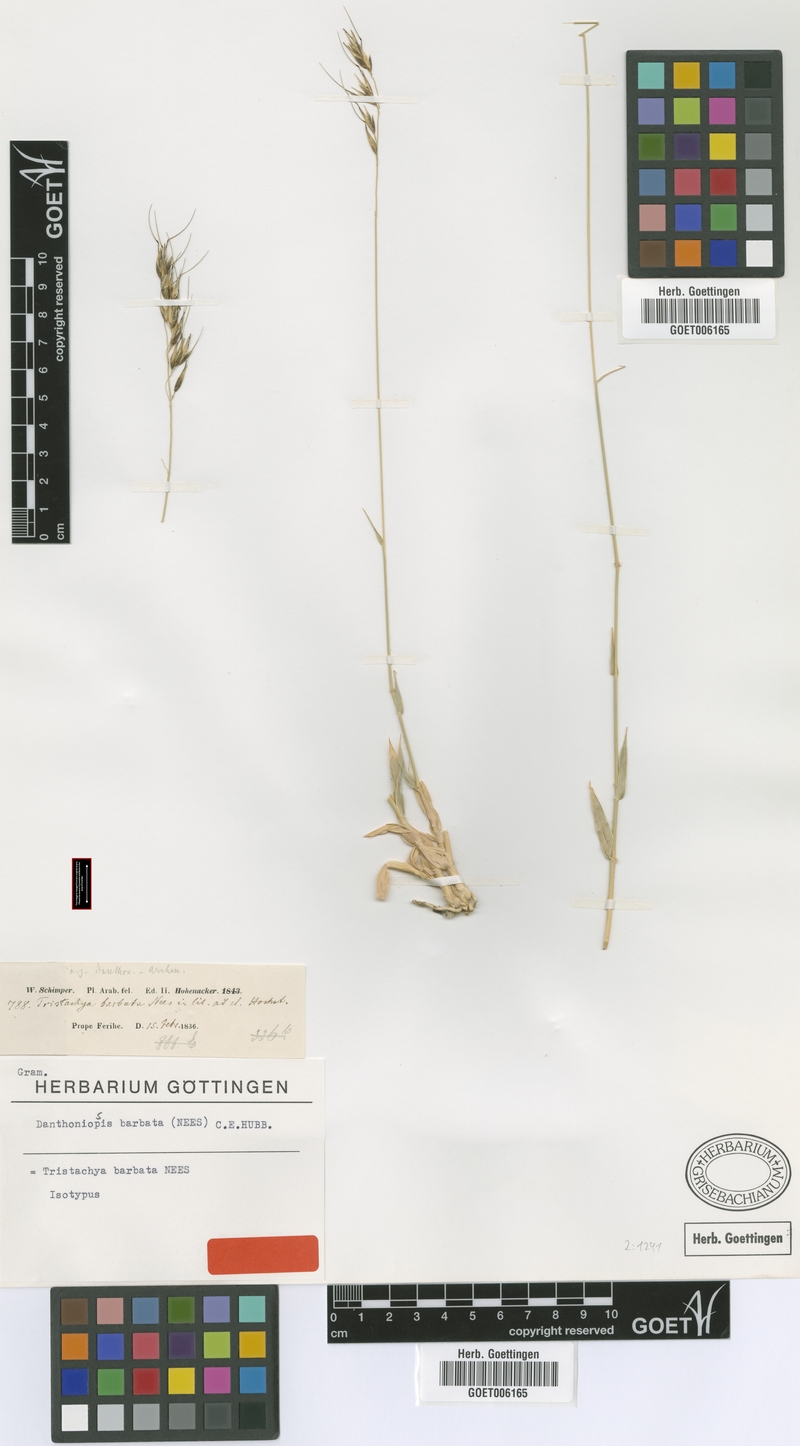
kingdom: Plantae
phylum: Tracheophyta
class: Liliopsida
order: Poales
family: Poaceae
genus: Danthoniopsis
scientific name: Danthoniopsis barbata
